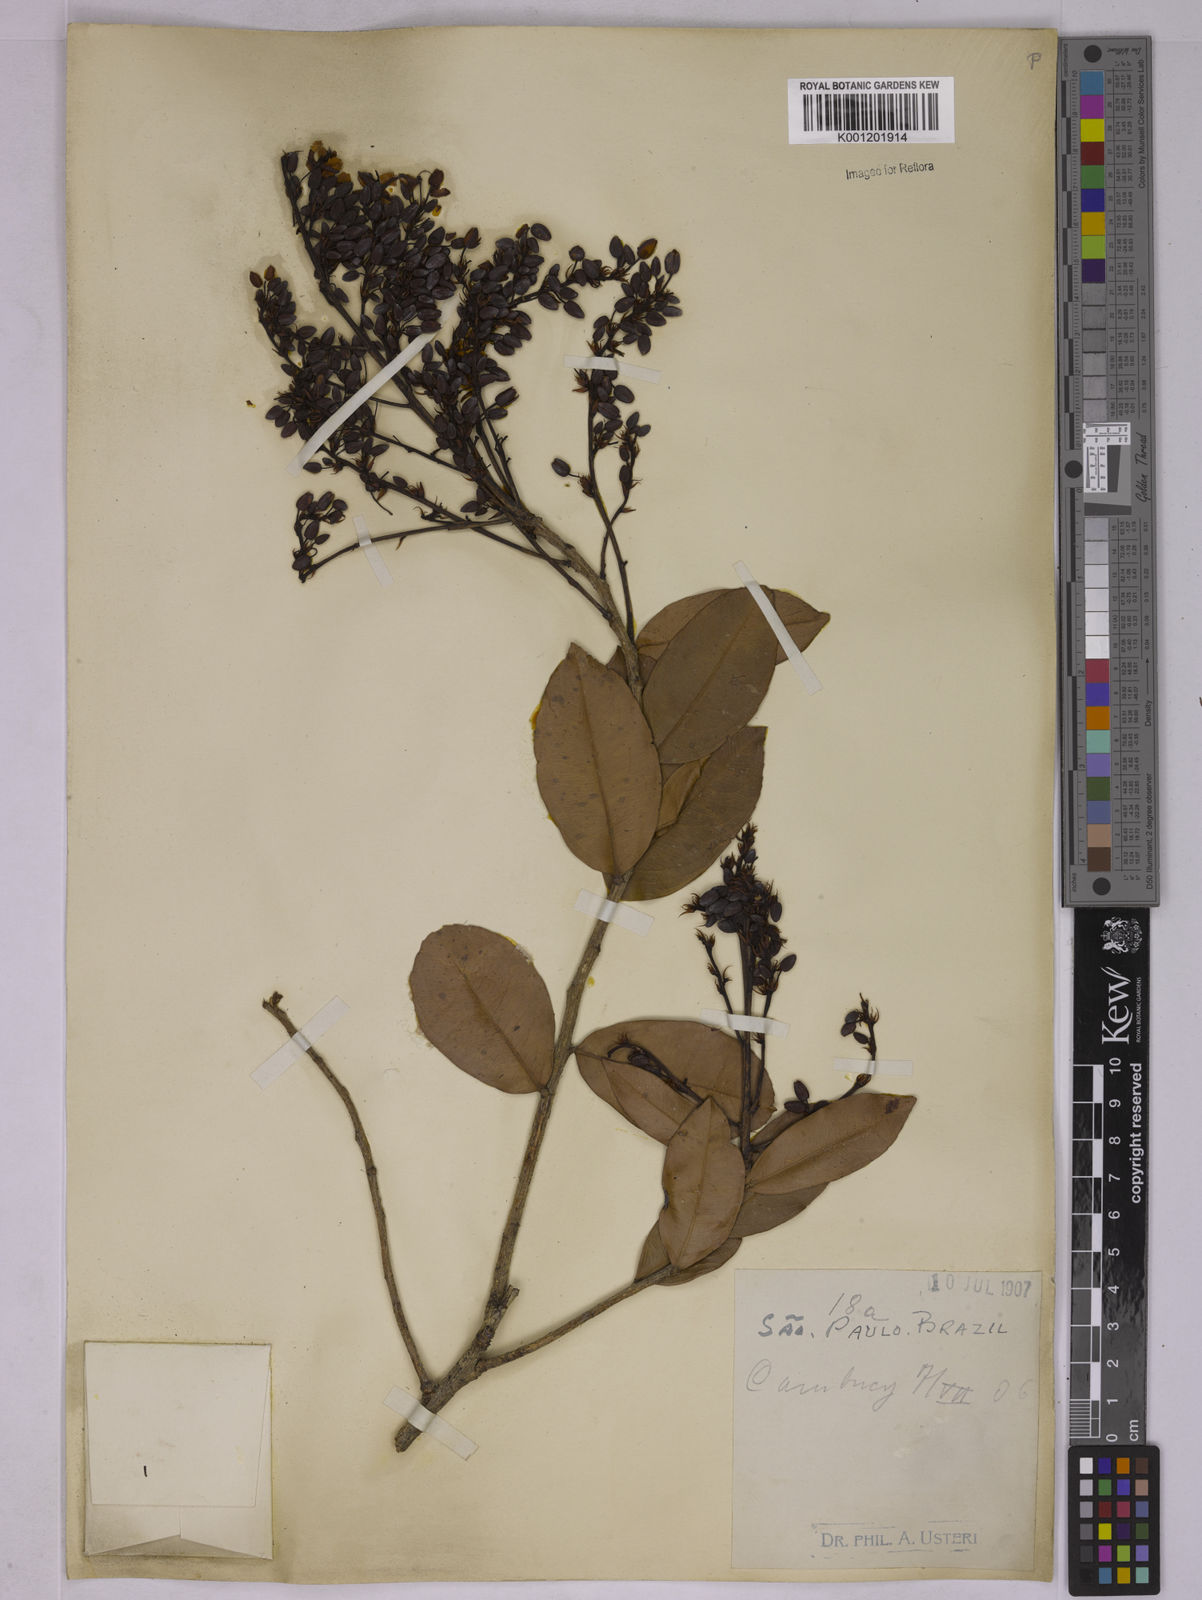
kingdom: Plantae
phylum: Tracheophyta
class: Magnoliopsida
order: Malpighiales
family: Ochnaceae
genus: Ouratea
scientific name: Ouratea floribunda
